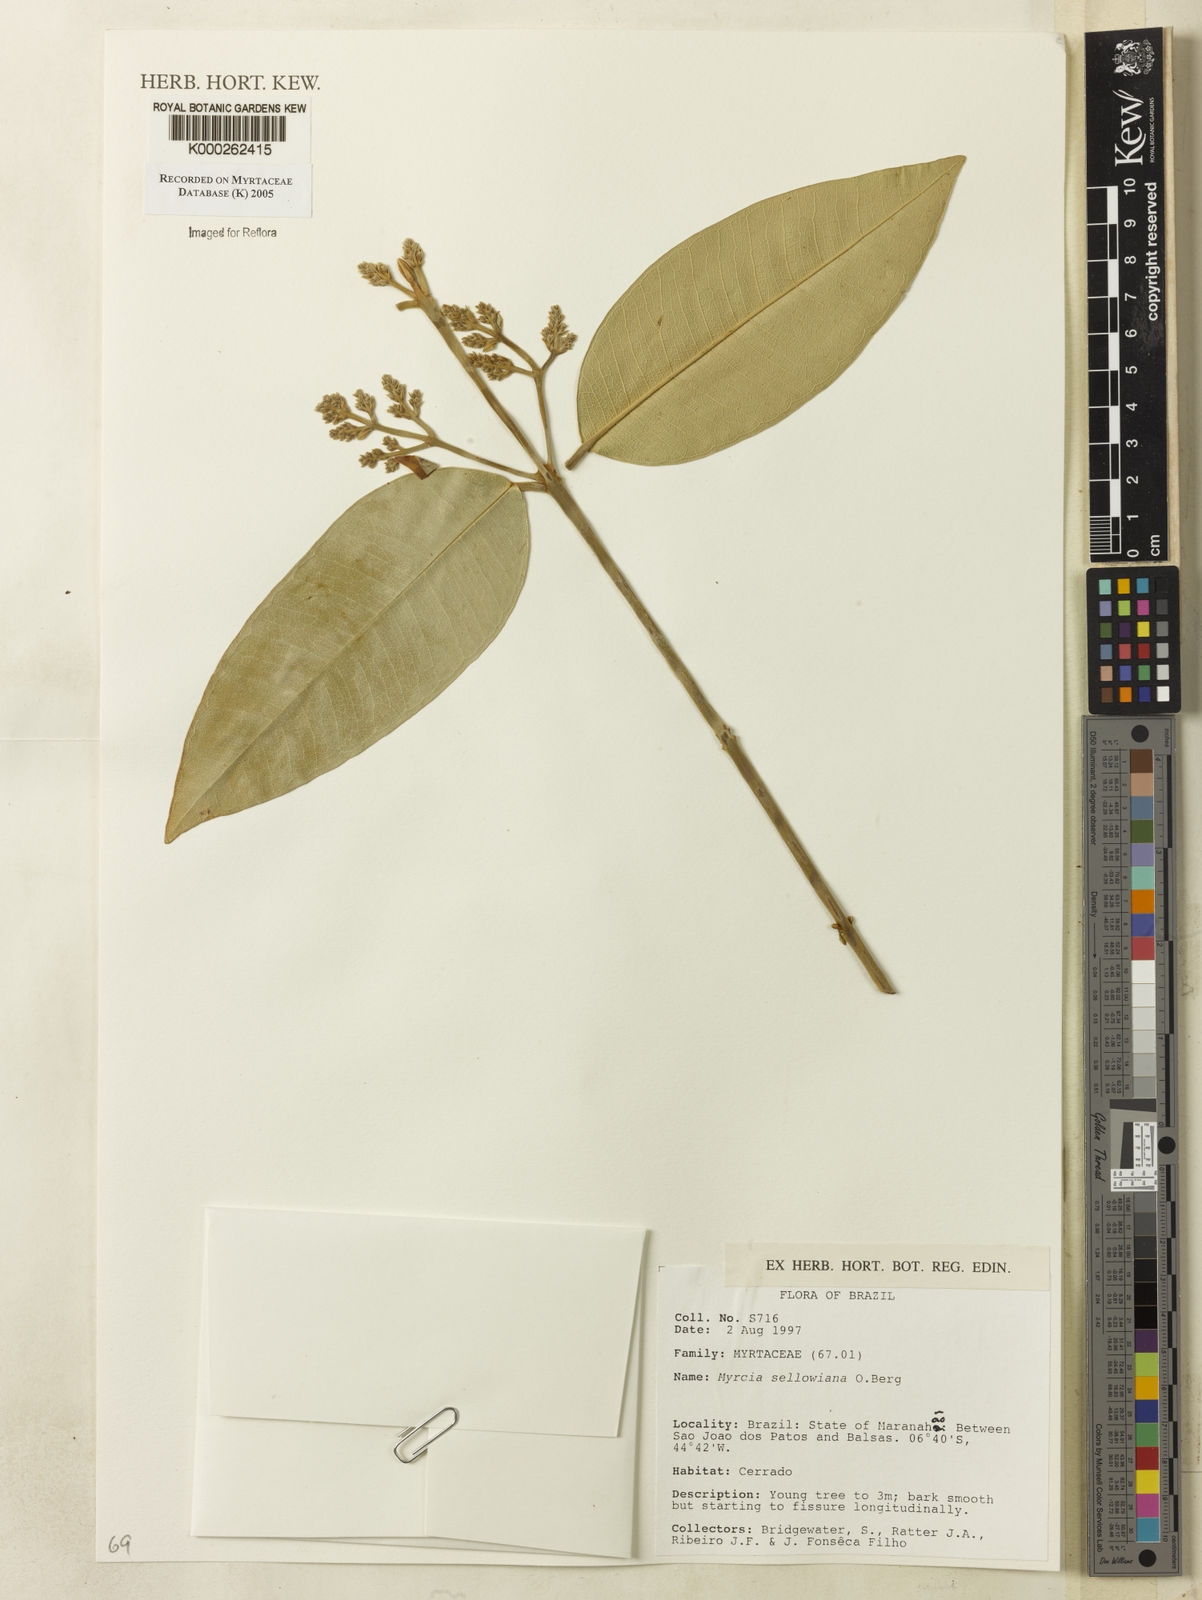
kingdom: Plantae
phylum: Tracheophyta
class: Magnoliopsida
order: Myrtales
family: Myrtaceae
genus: Myrcia
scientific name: Myrcia splendens
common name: Surinam cherry
